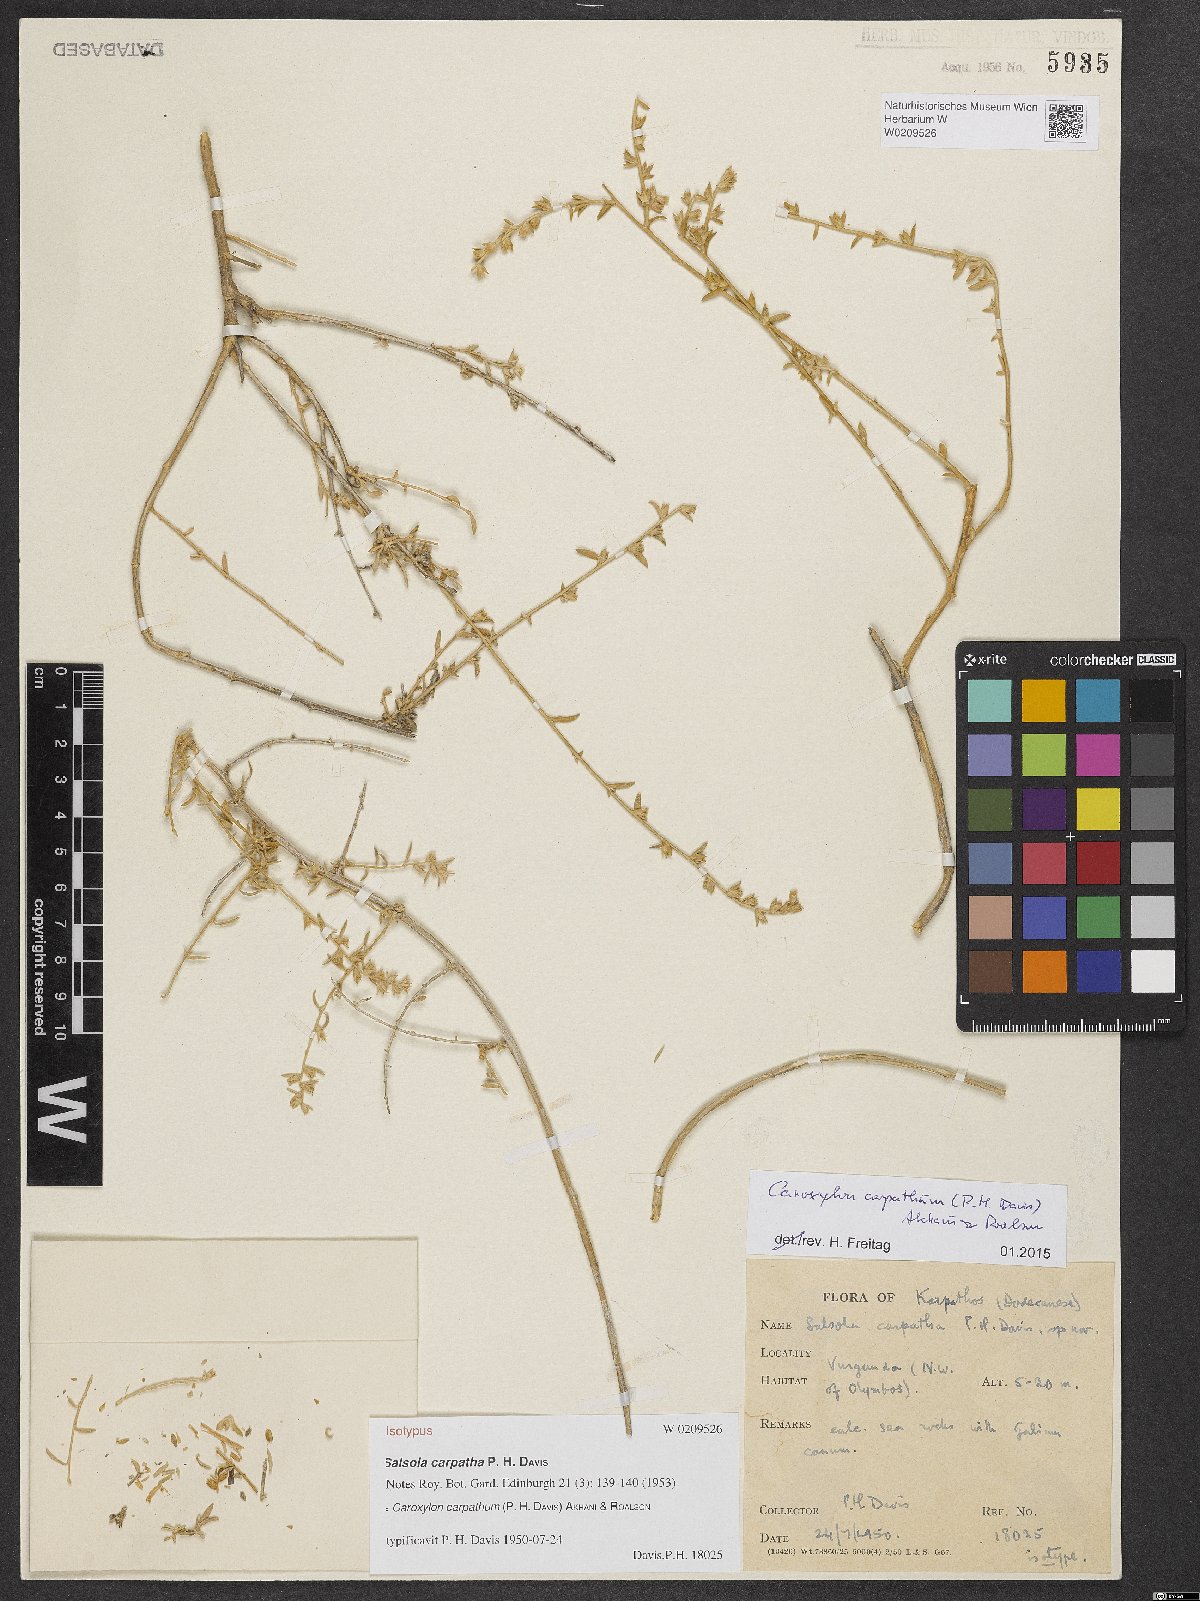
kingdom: Plantae
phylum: Tracheophyta
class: Magnoliopsida
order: Caryophyllales
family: Amaranthaceae
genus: Akhania
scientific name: Akhania carpatha
